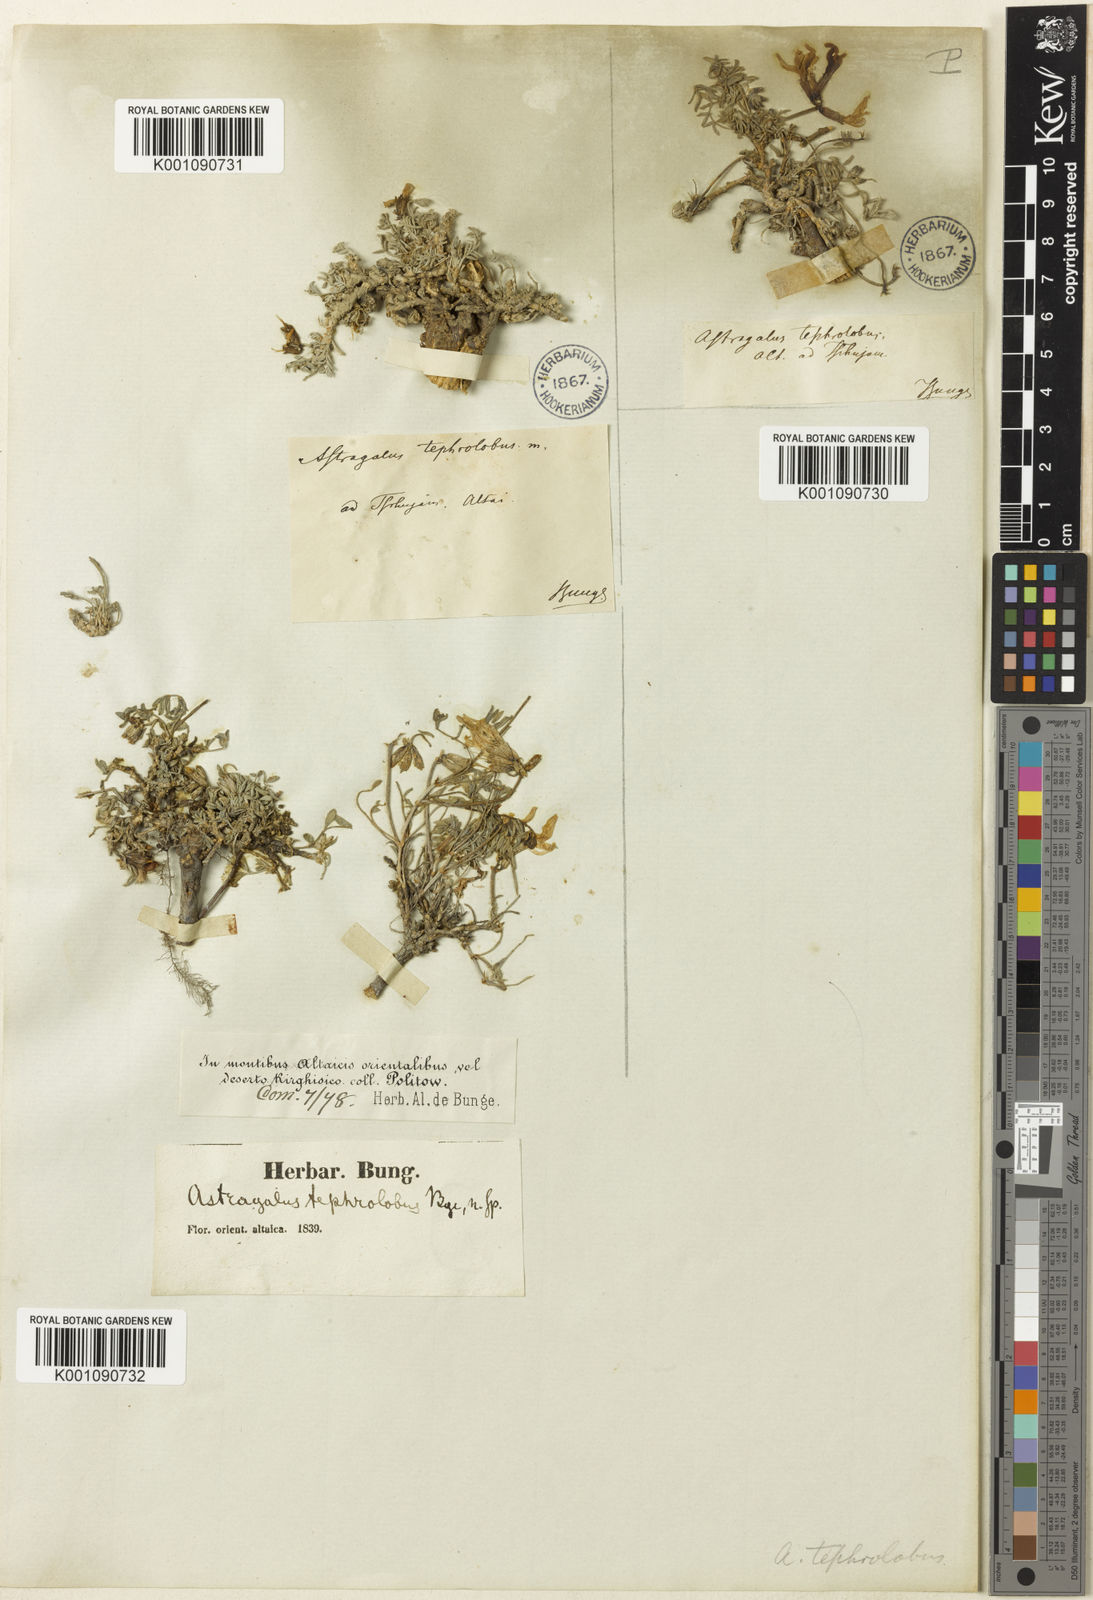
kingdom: Plantae
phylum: Tracheophyta
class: Magnoliopsida
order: Fabales
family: Fabaceae
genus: Astragalus
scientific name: Astragalus
